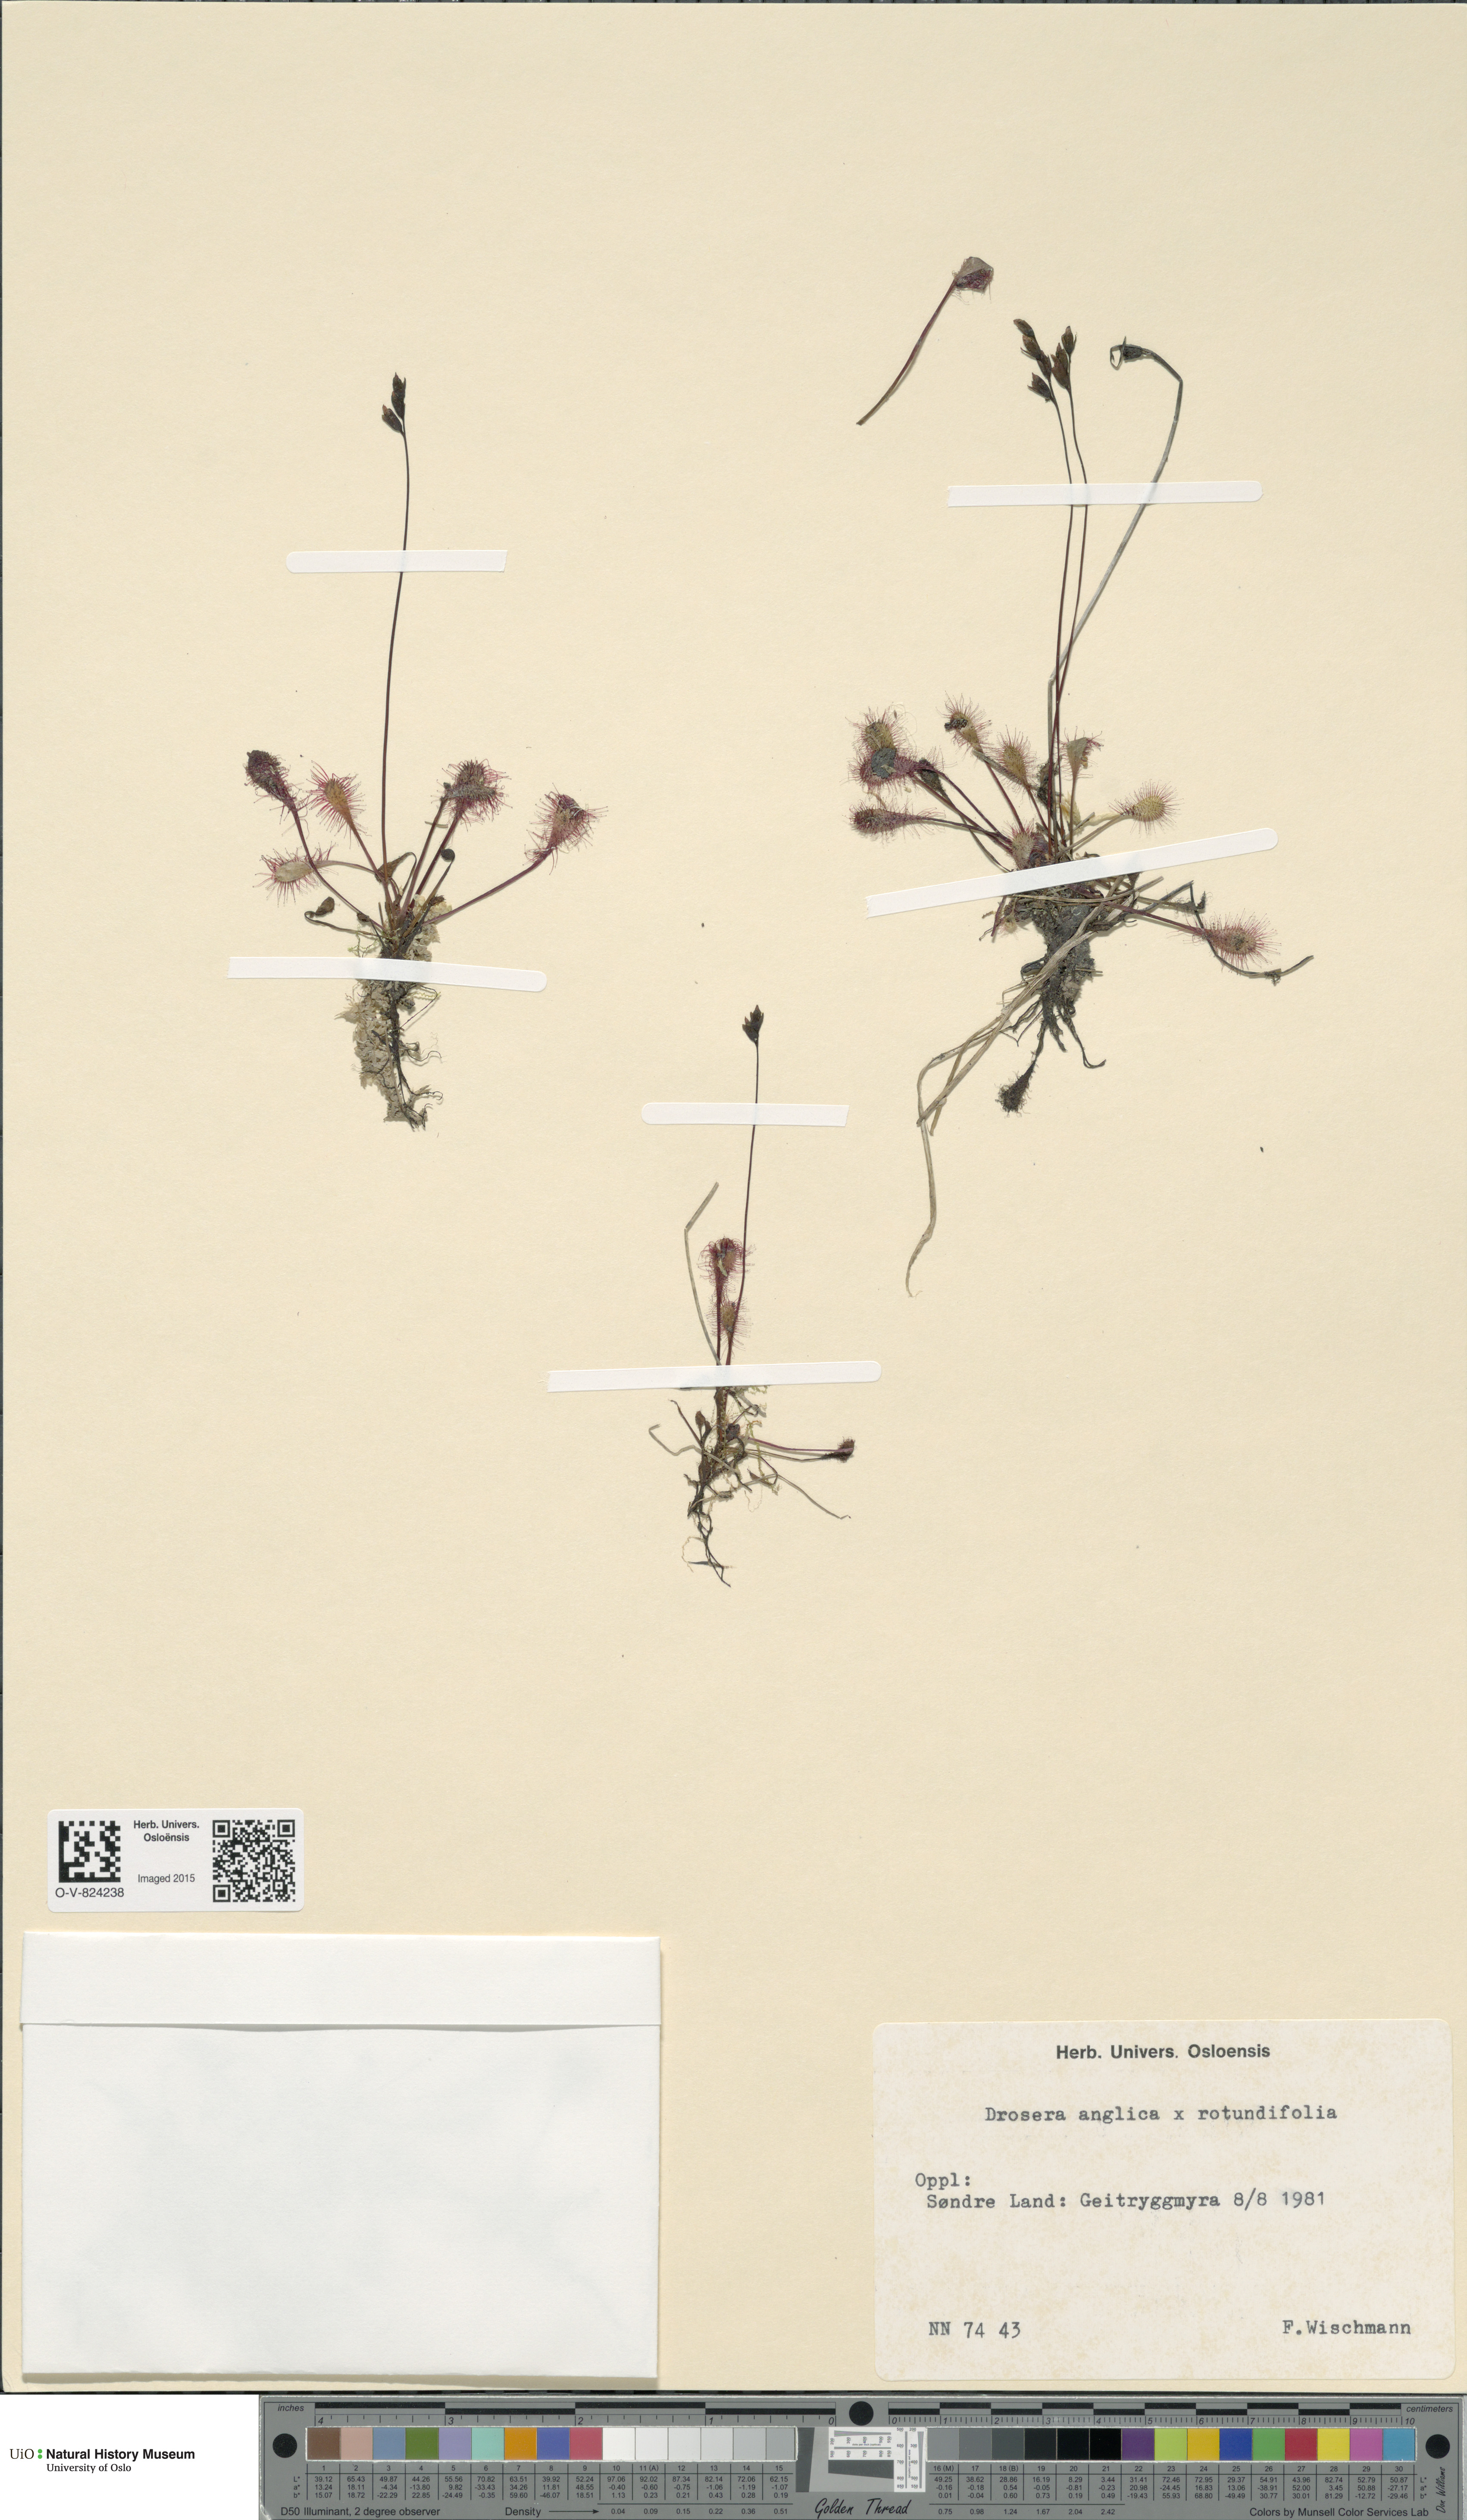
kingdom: Plantae
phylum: Tracheophyta
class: Magnoliopsida
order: Caryophyllales
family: Droseraceae
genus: Drosera
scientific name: Drosera
